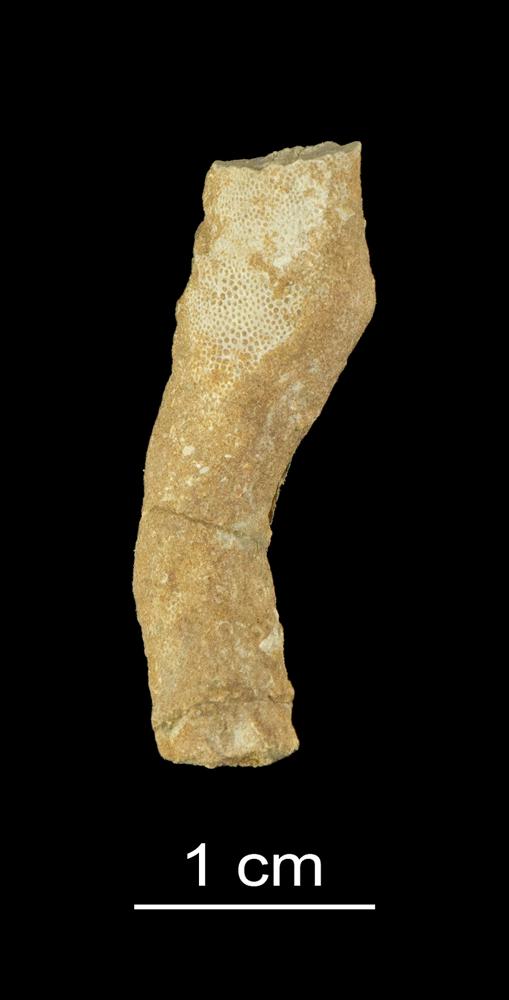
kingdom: Animalia
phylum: Bryozoa
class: Stenolaemata
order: Trepostomatida
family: Monticuliporidae
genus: Homotrypa
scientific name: Homotrypa
